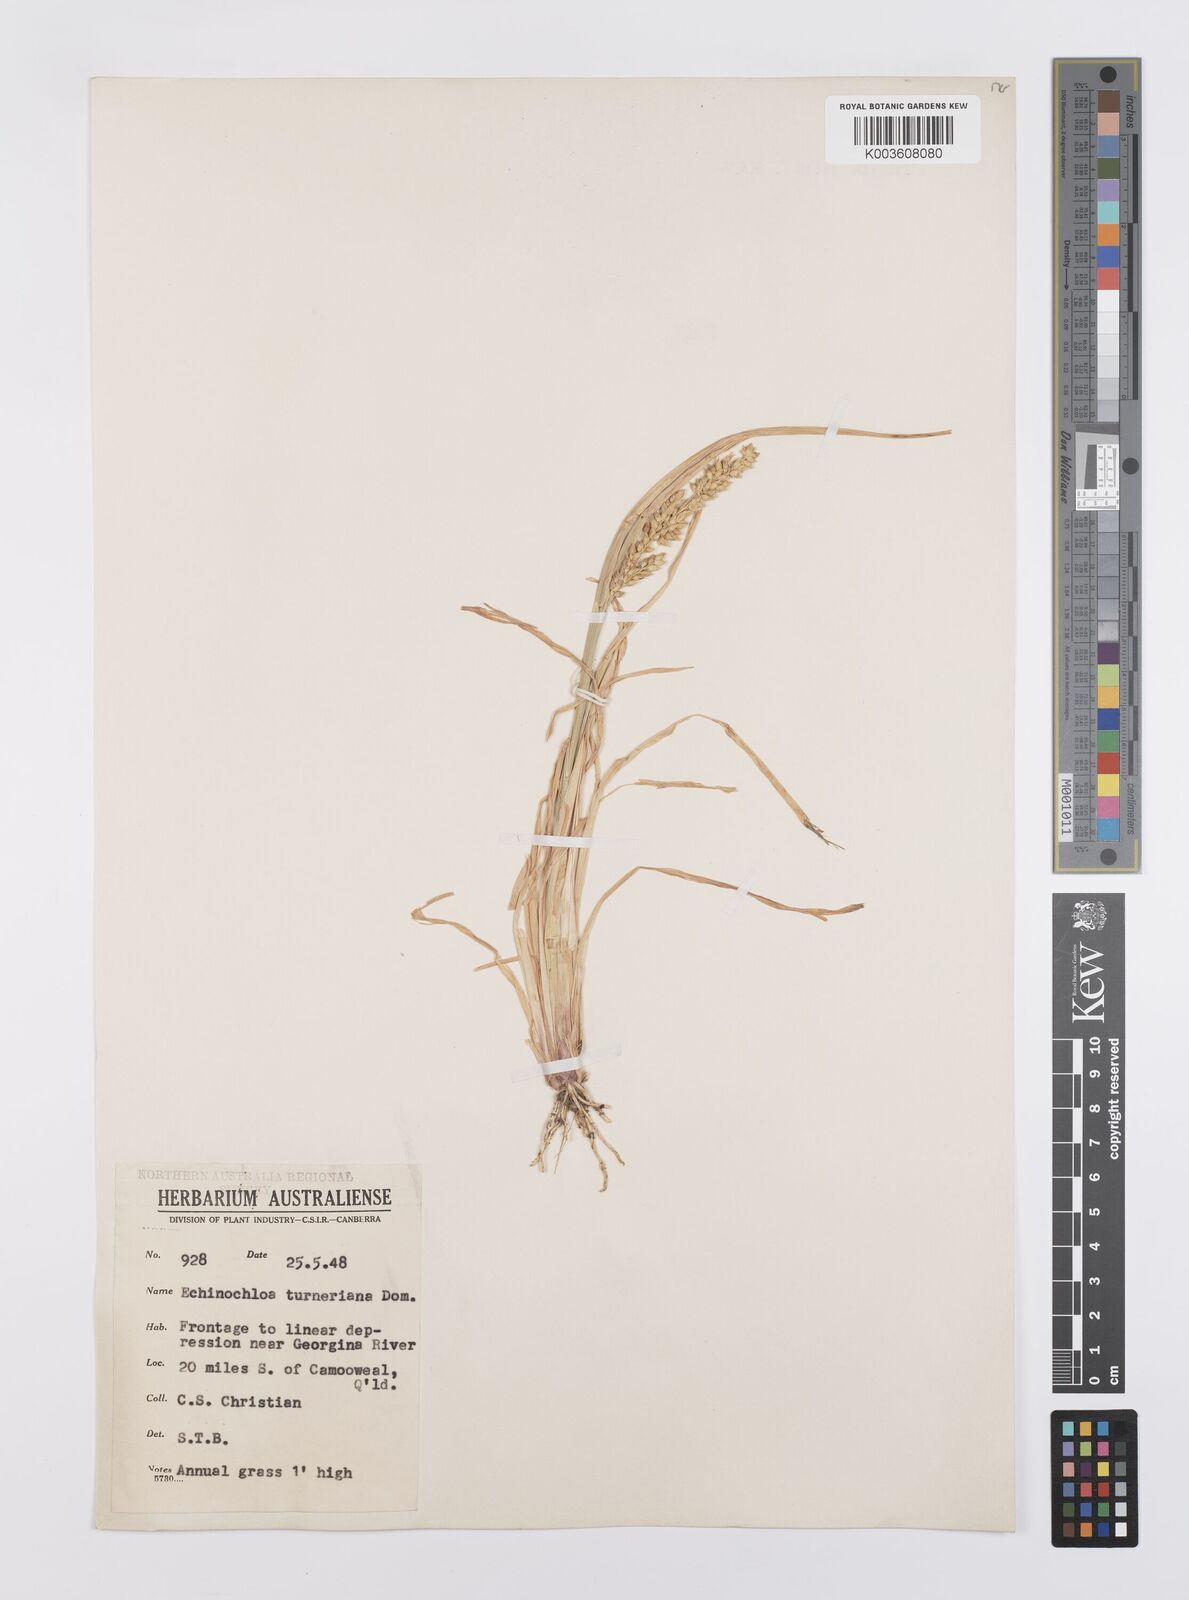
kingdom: Plantae
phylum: Tracheophyta
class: Liliopsida
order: Poales
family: Poaceae
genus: Echinochloa
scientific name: Echinochloa turneriana
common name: Channel millet
